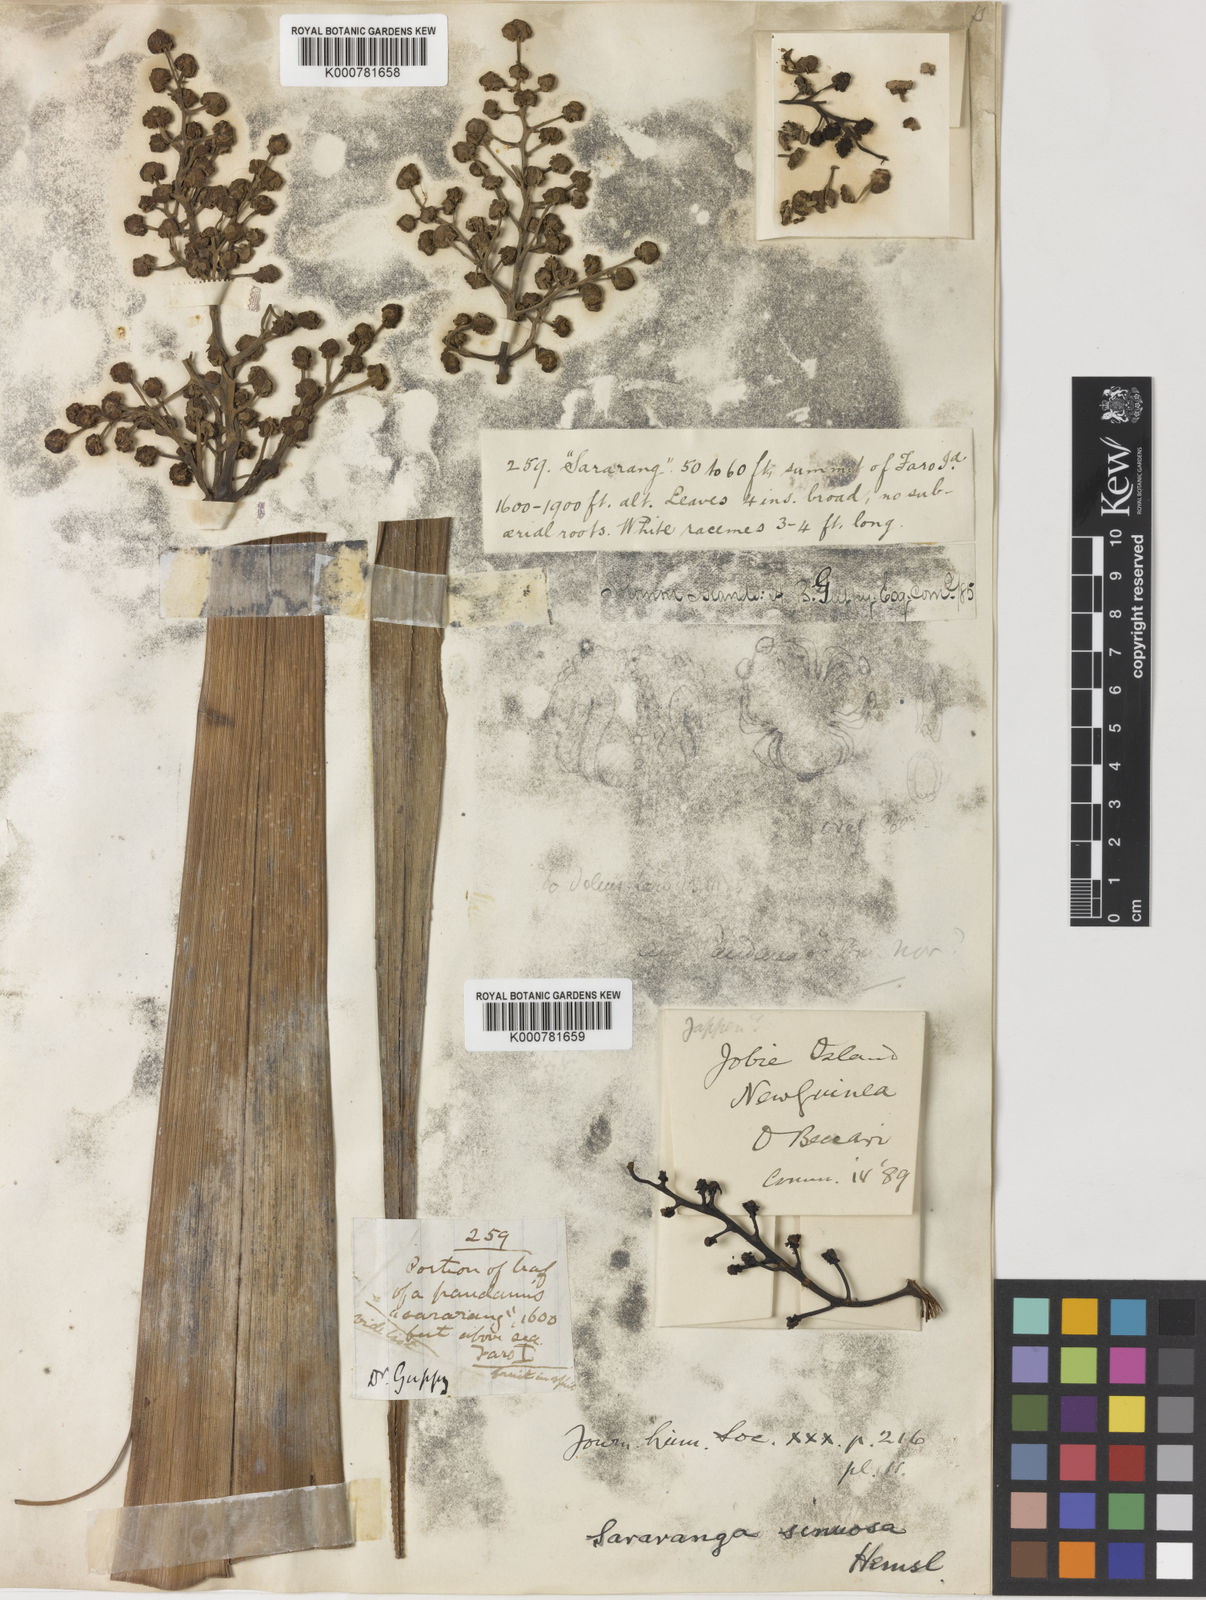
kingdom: Plantae
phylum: Tracheophyta
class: Liliopsida
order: Pandanales
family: Pandanaceae
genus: Sararanga
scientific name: Sararanga sinuosa
